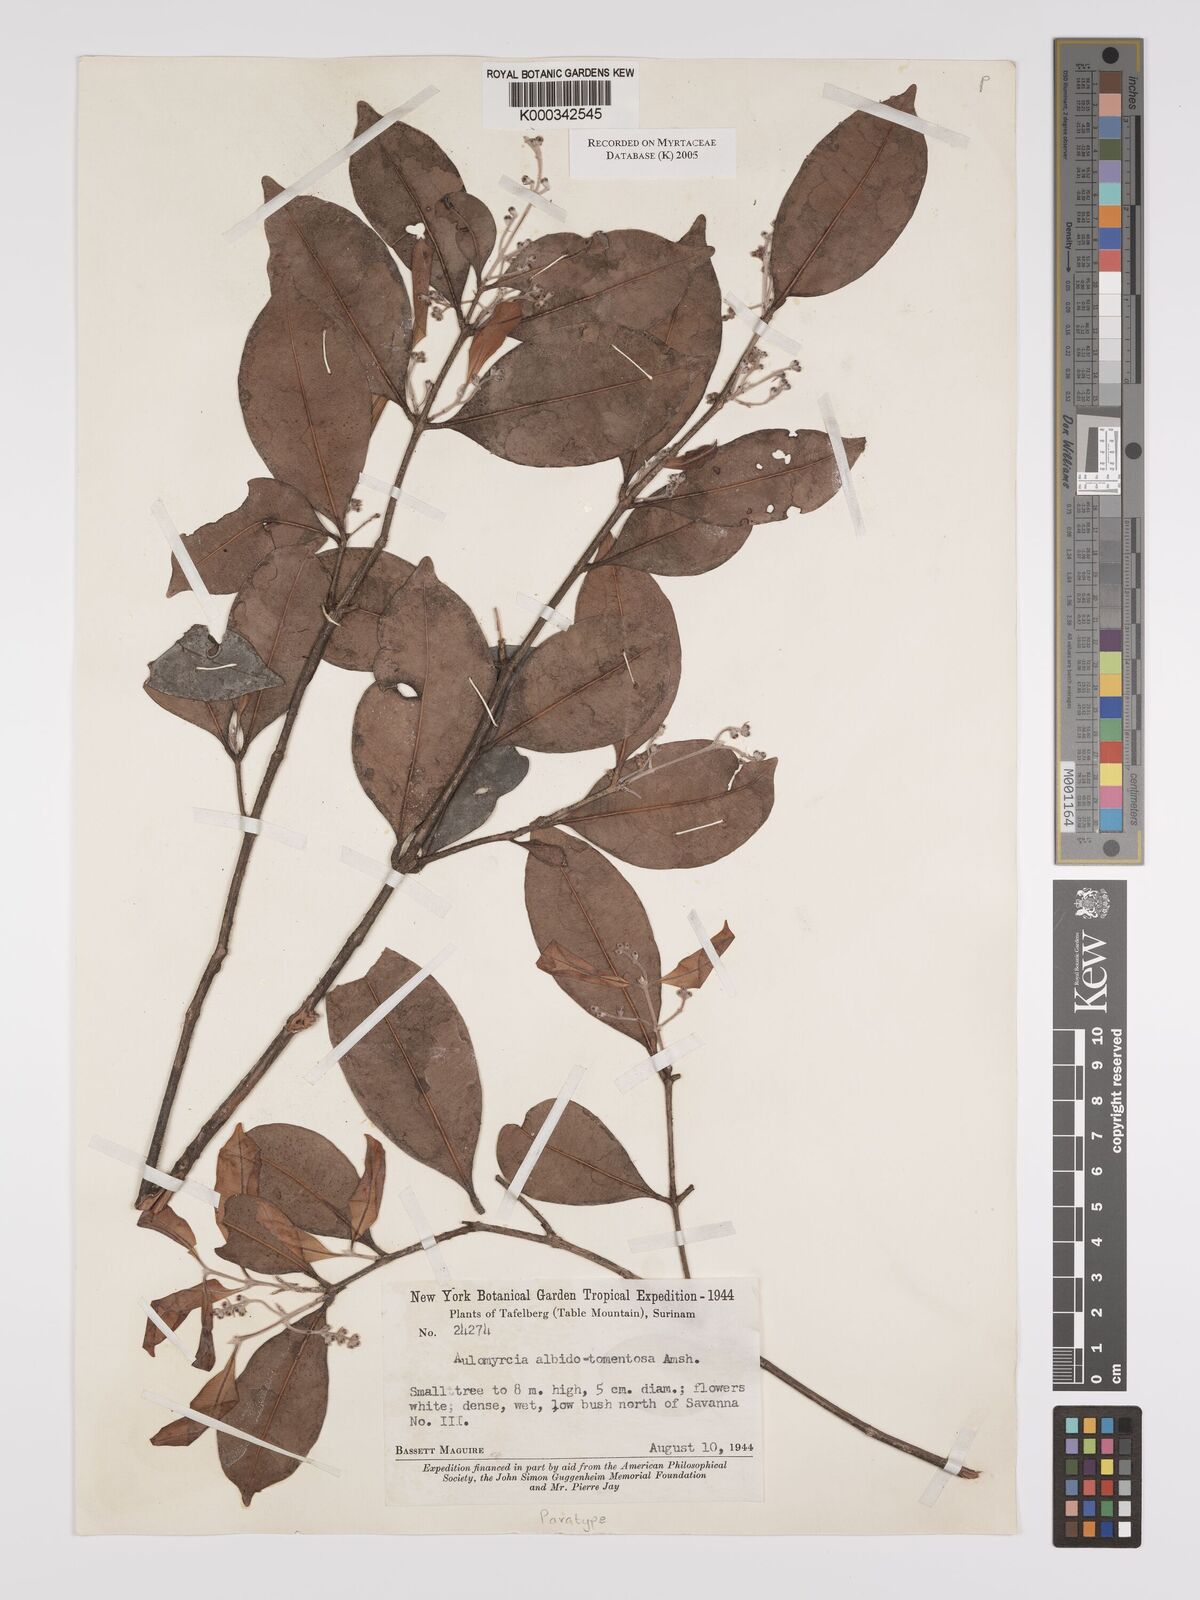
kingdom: Plantae
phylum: Tracheophyta
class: Magnoliopsida
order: Myrtales
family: Myrtaceae
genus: Myrcia
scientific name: Myrcia albidotomentosa
